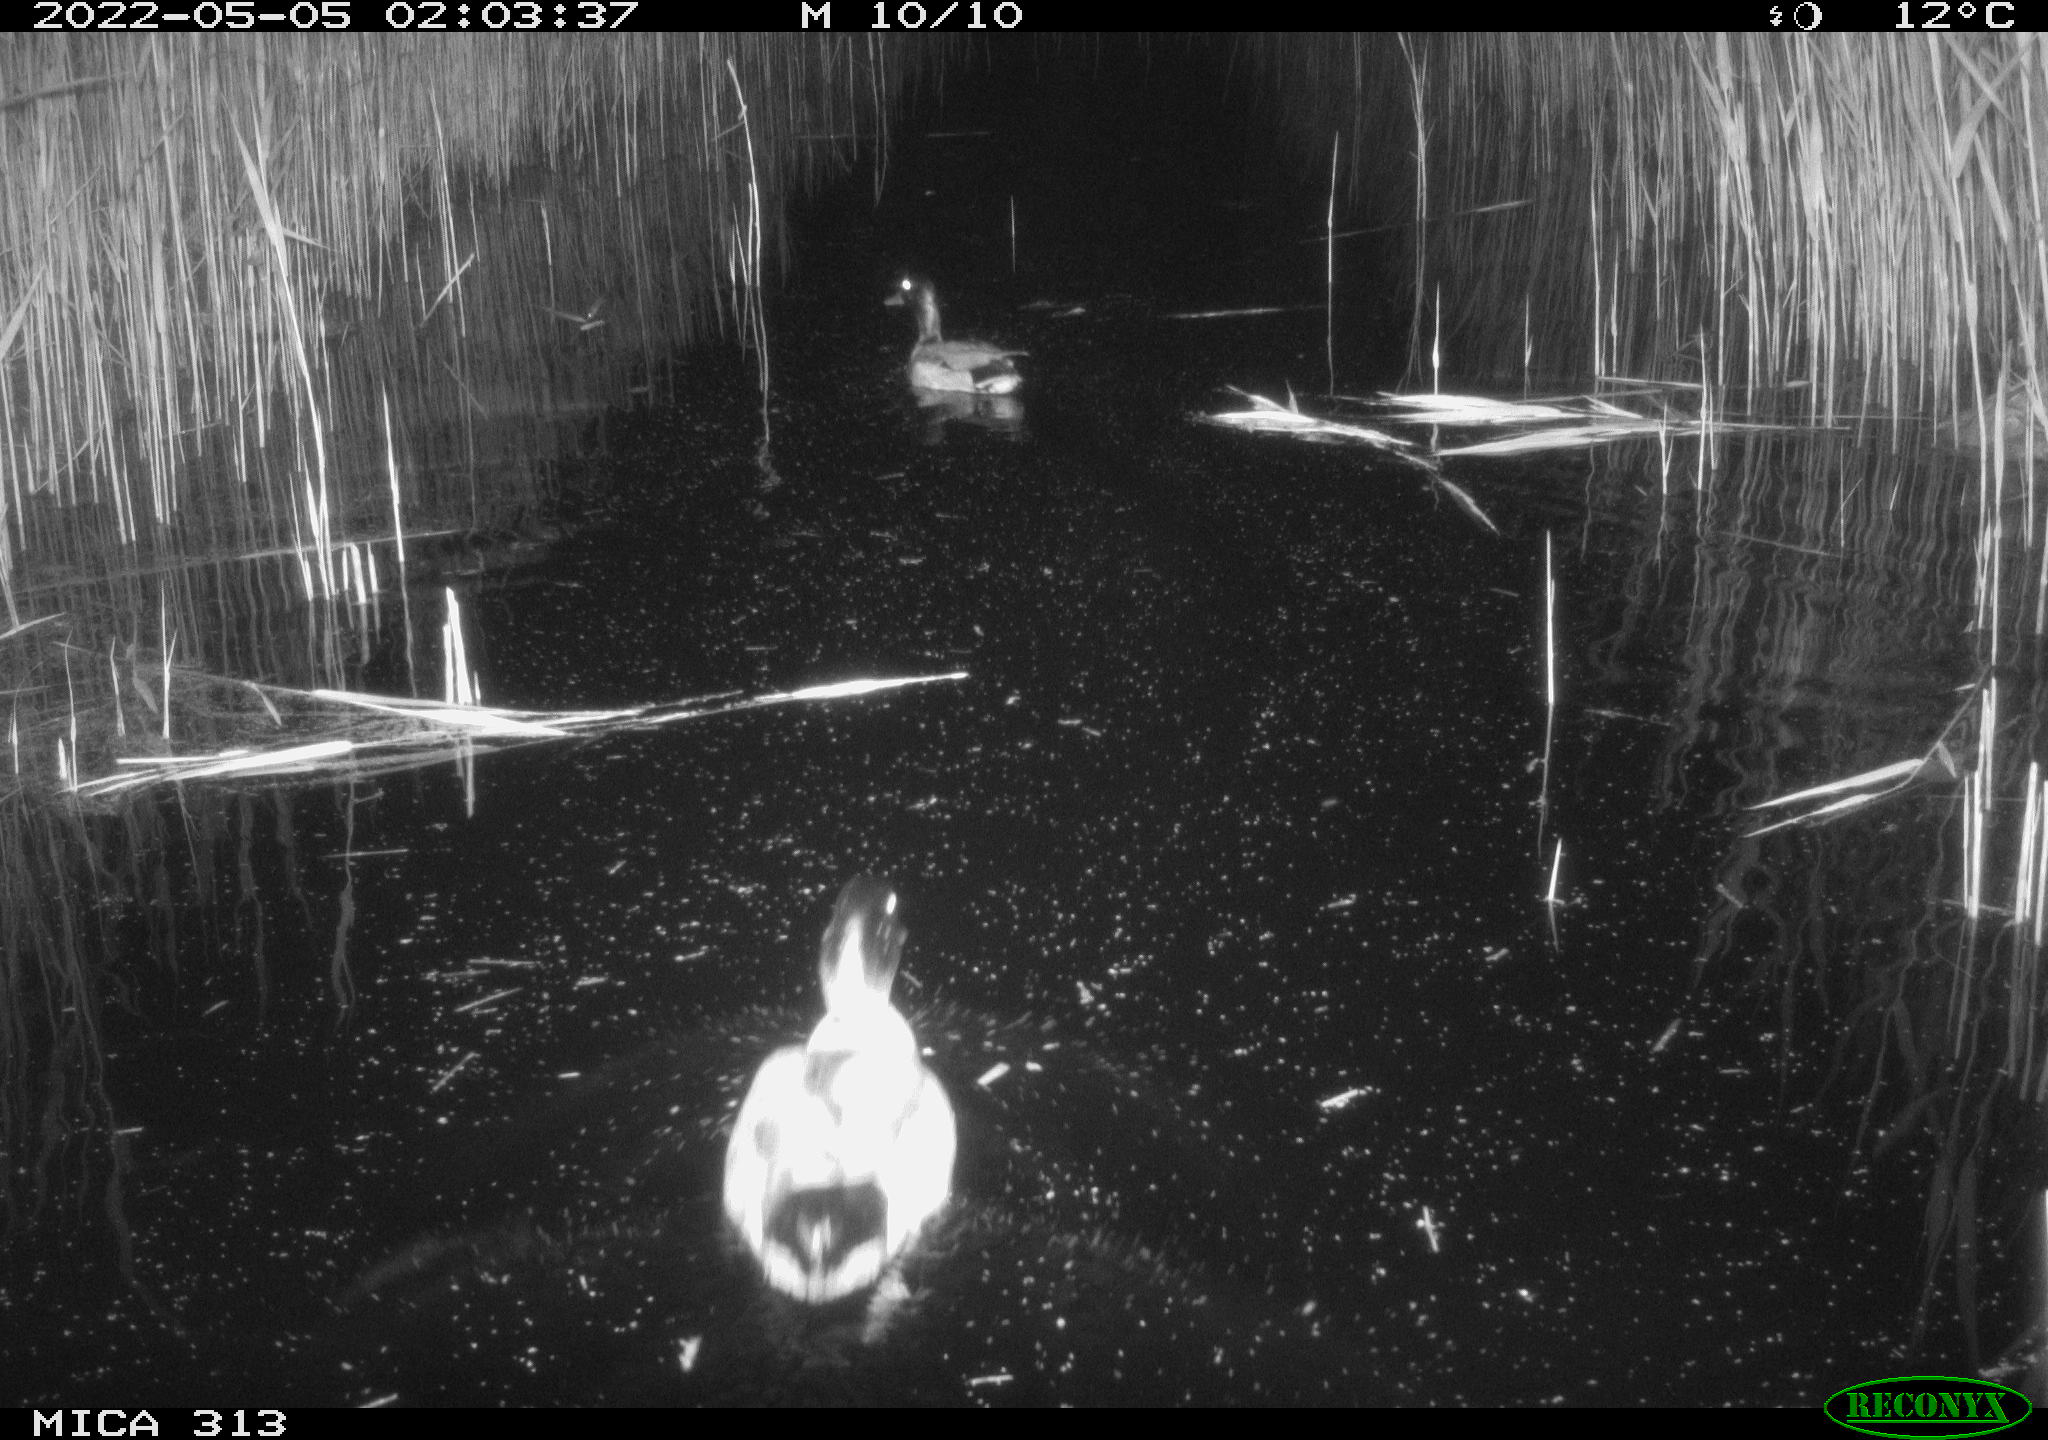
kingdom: Animalia
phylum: Chordata
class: Aves
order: Anseriformes
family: Anatidae
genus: Anas
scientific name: Anas platyrhynchos
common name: Mallard
